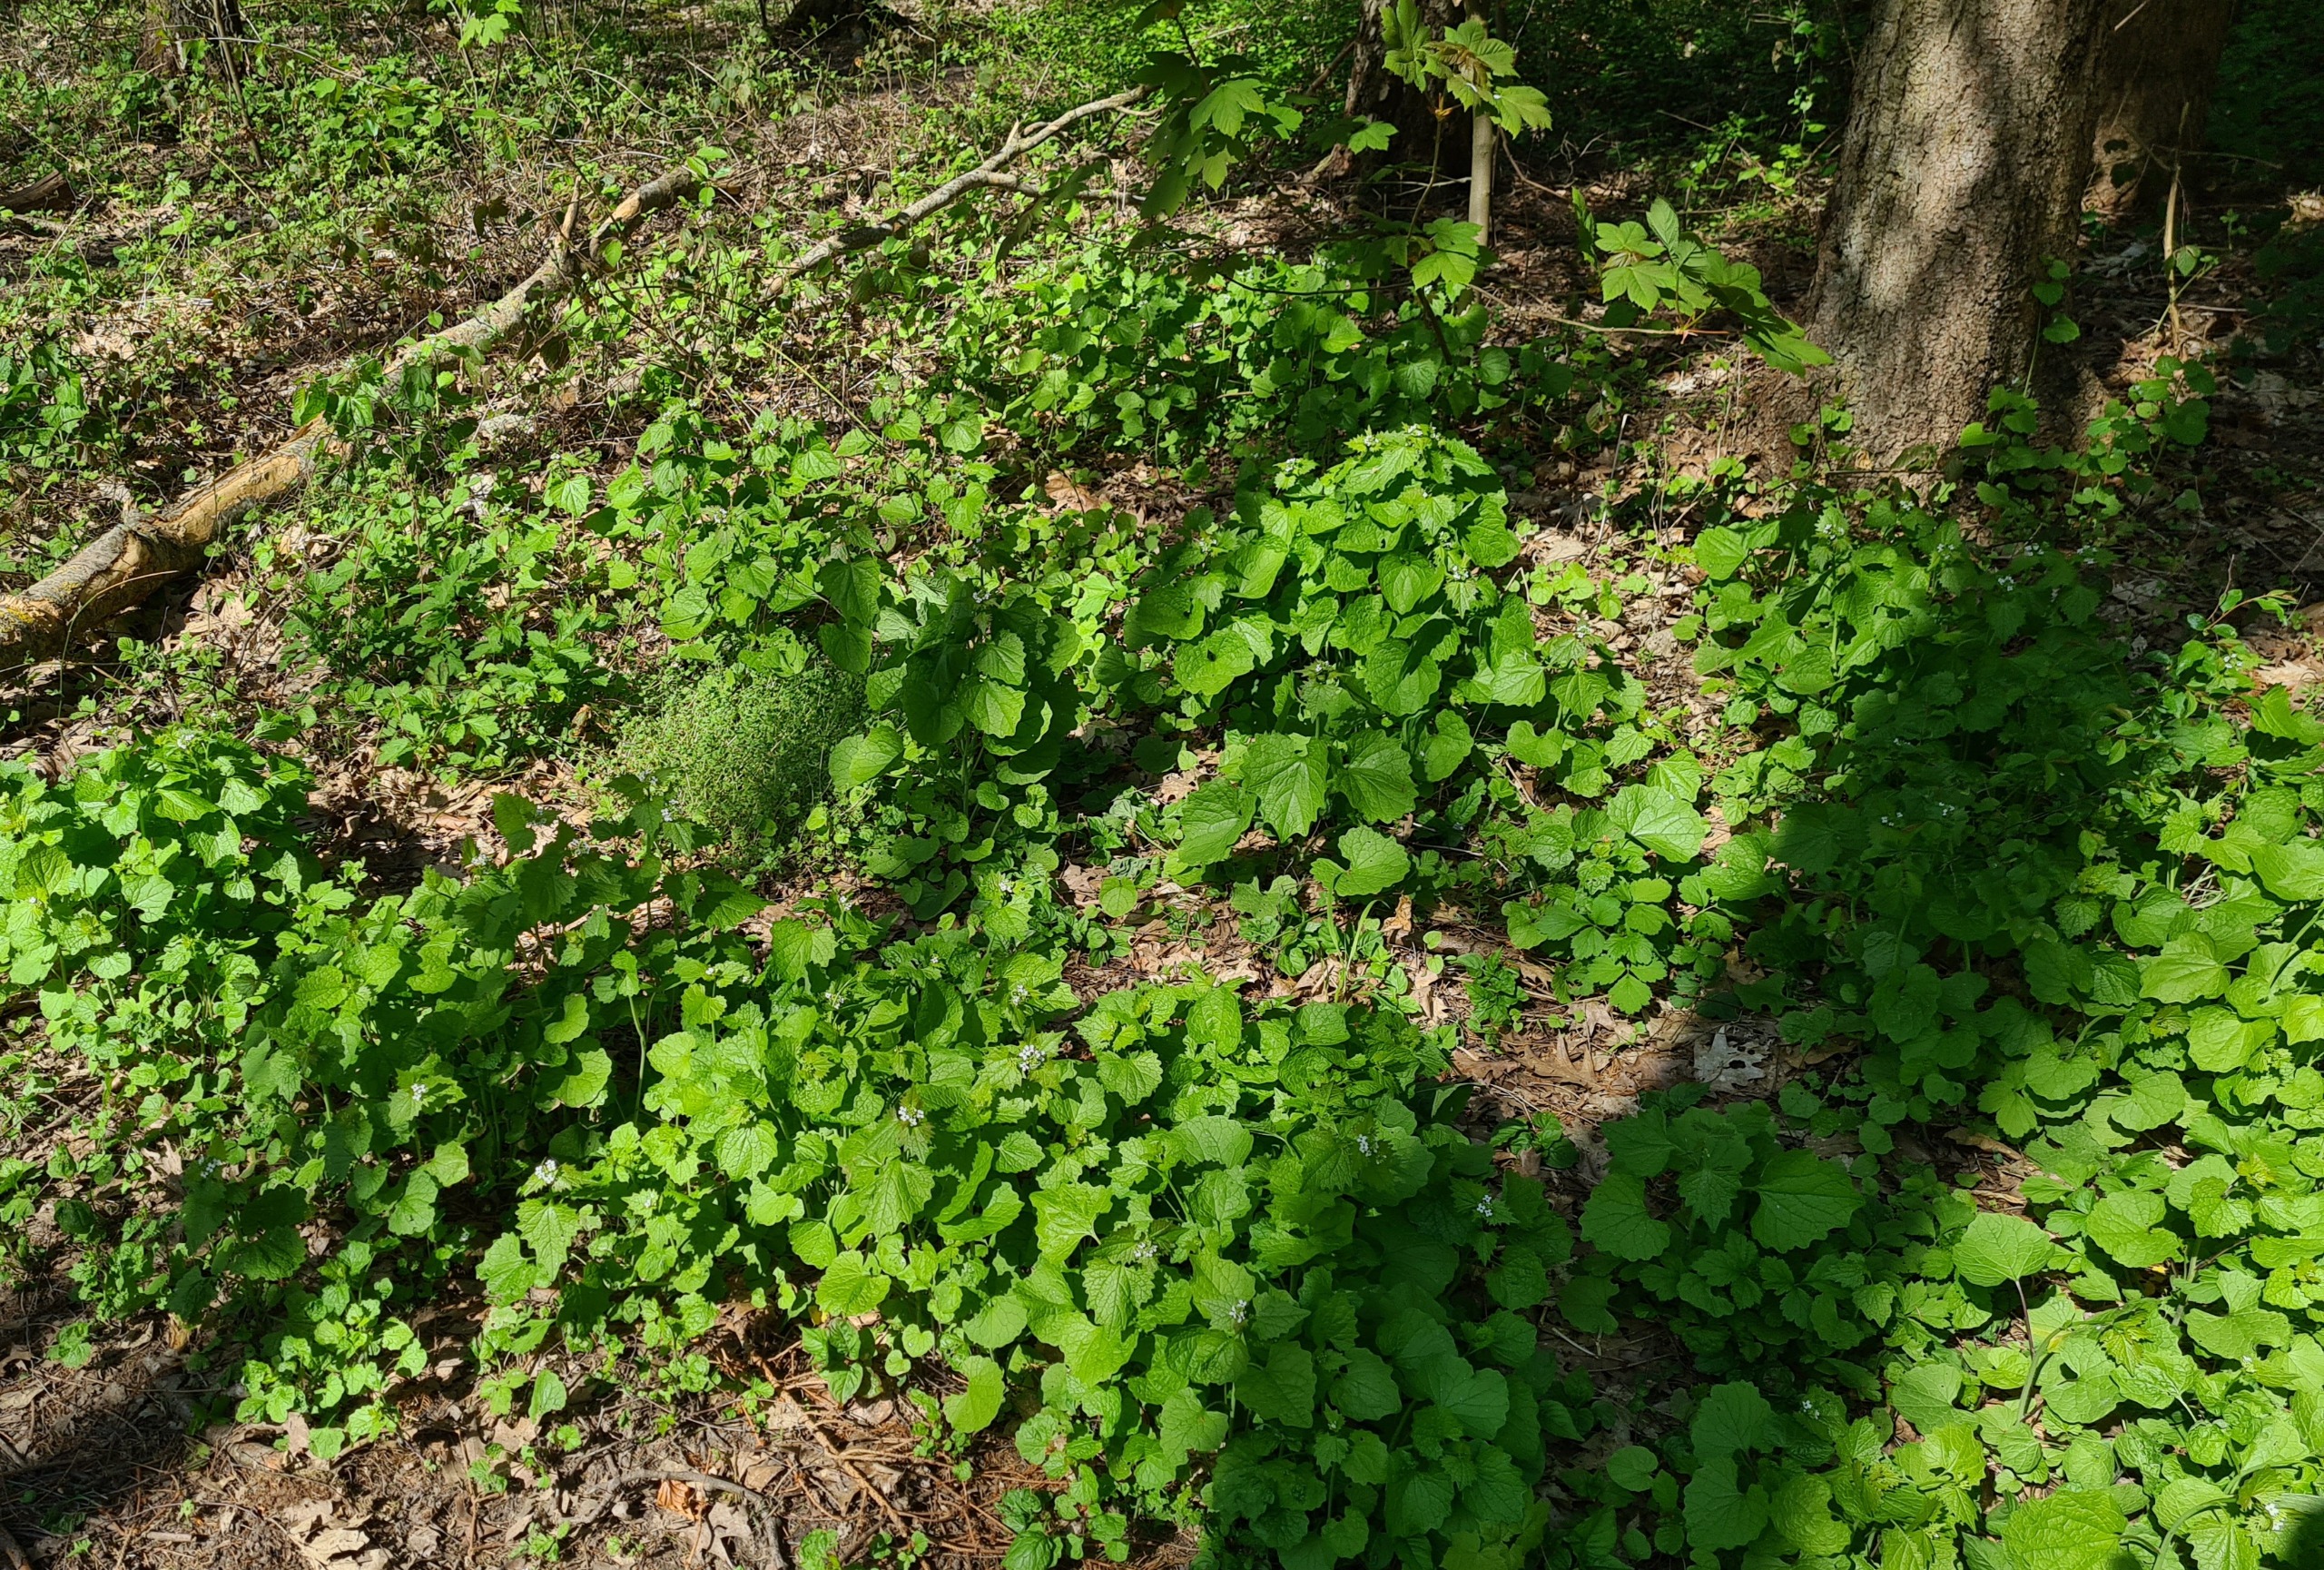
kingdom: Plantae
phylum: Tracheophyta
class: Magnoliopsida
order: Brassicales
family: Brassicaceae
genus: Alliaria
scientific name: Alliaria petiolata
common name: Løgkarse
